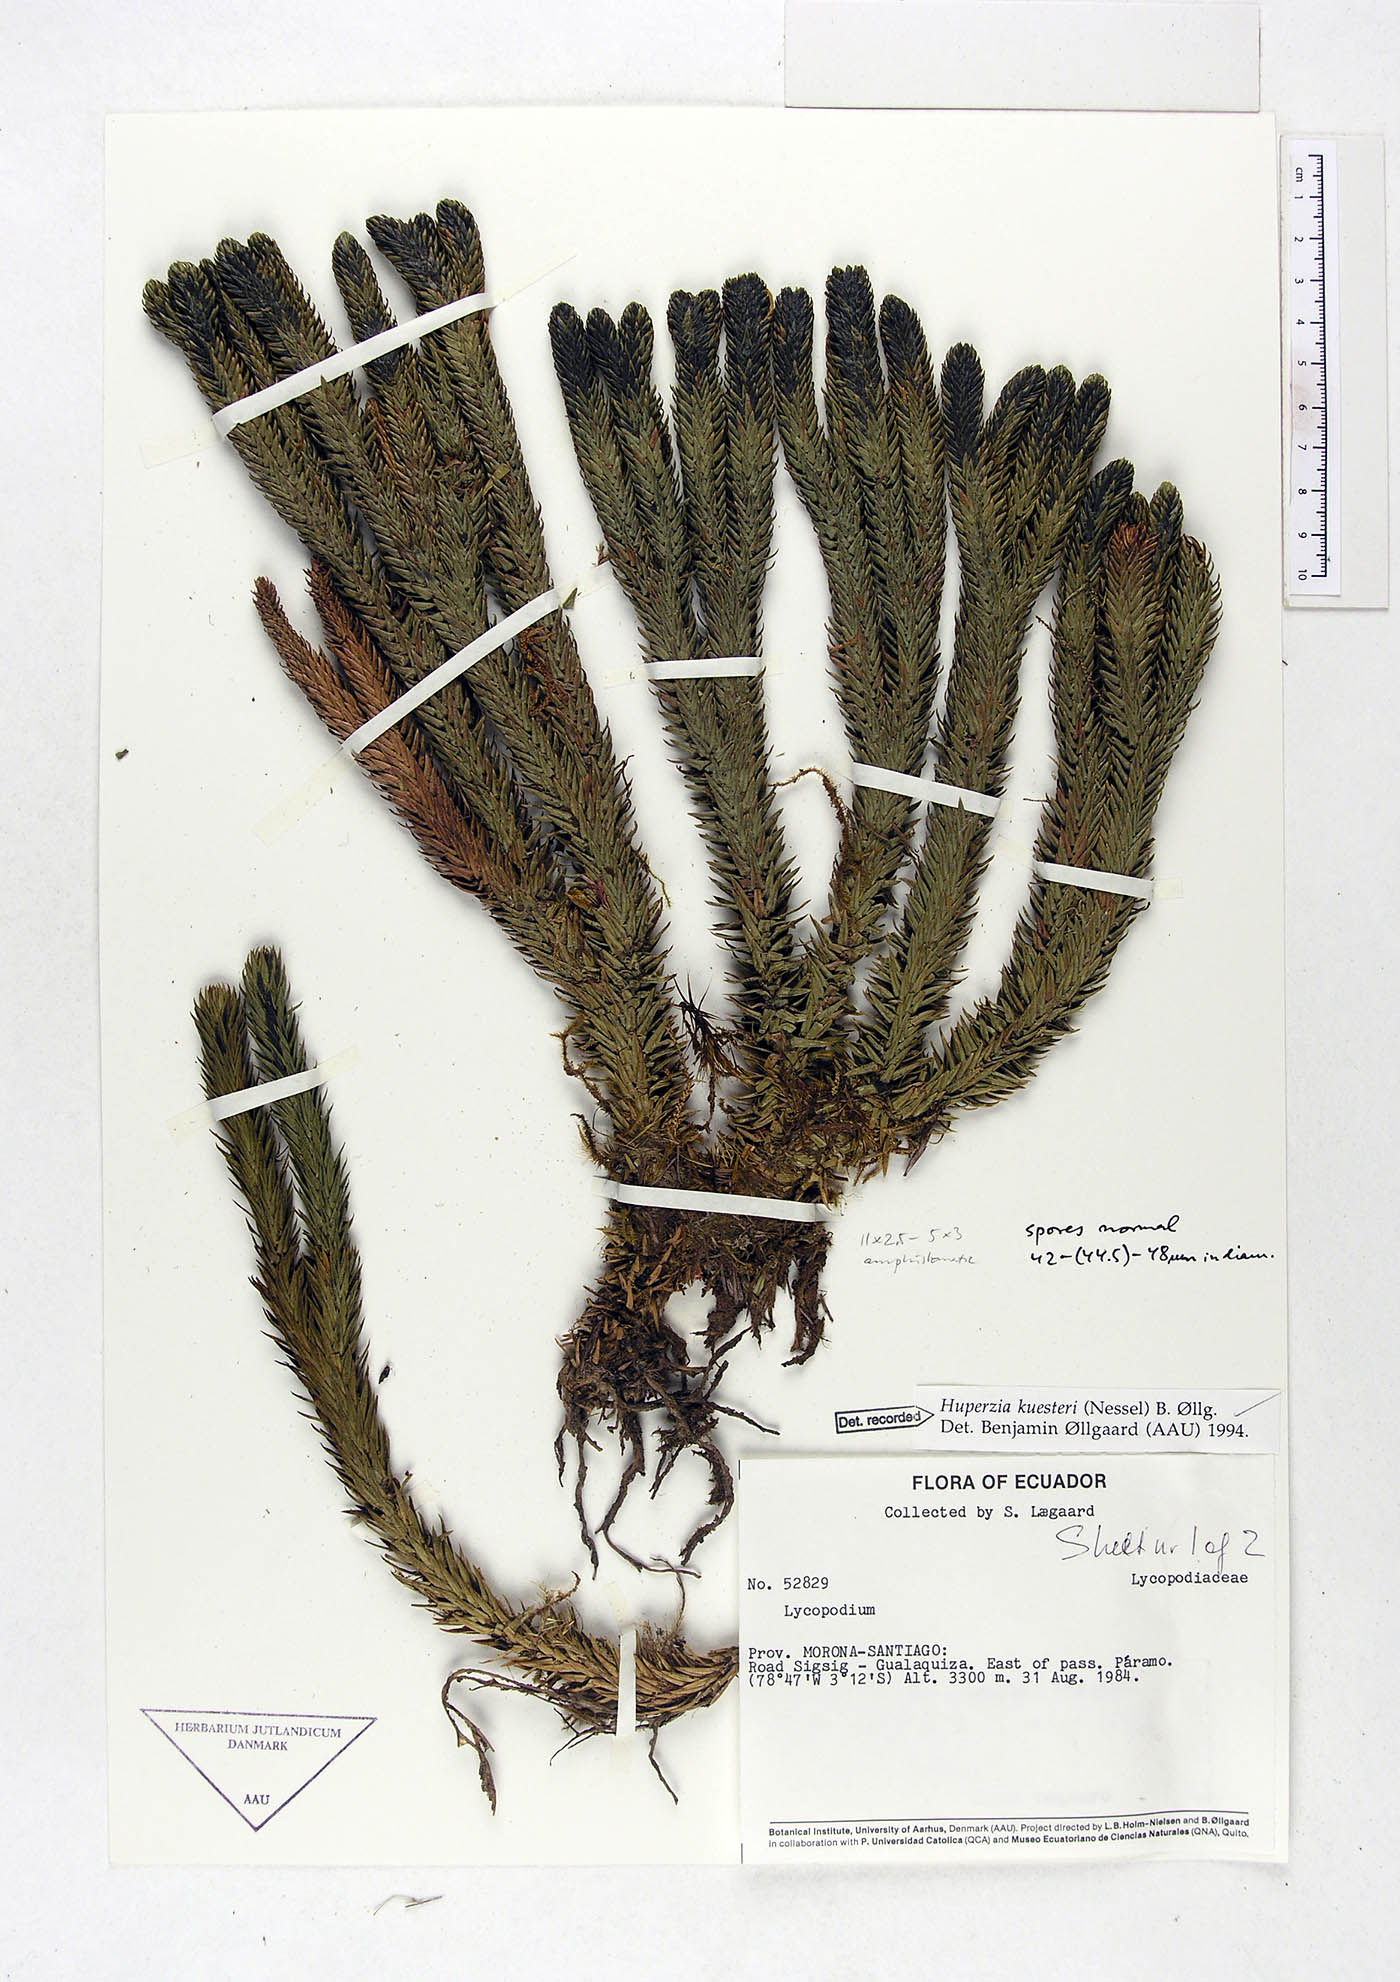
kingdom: Plantae
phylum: Tracheophyta
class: Lycopodiopsida
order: Lycopodiales
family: Lycopodiaceae
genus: Phlegmariurus
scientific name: Phlegmariurus kuesteri
